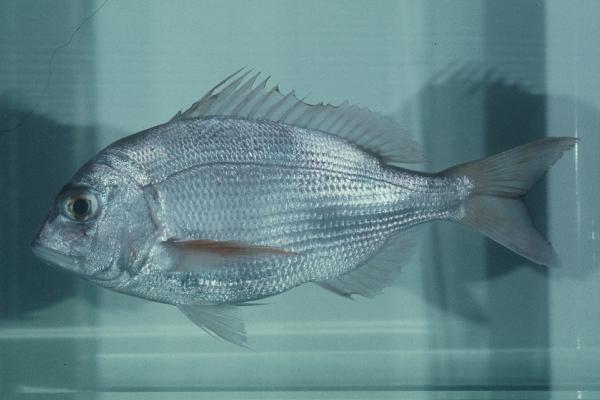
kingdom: Animalia
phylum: Chordata
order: Perciformes
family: Sparidae
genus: Cheimerius
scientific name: Cheimerius nufar
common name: Soldier
